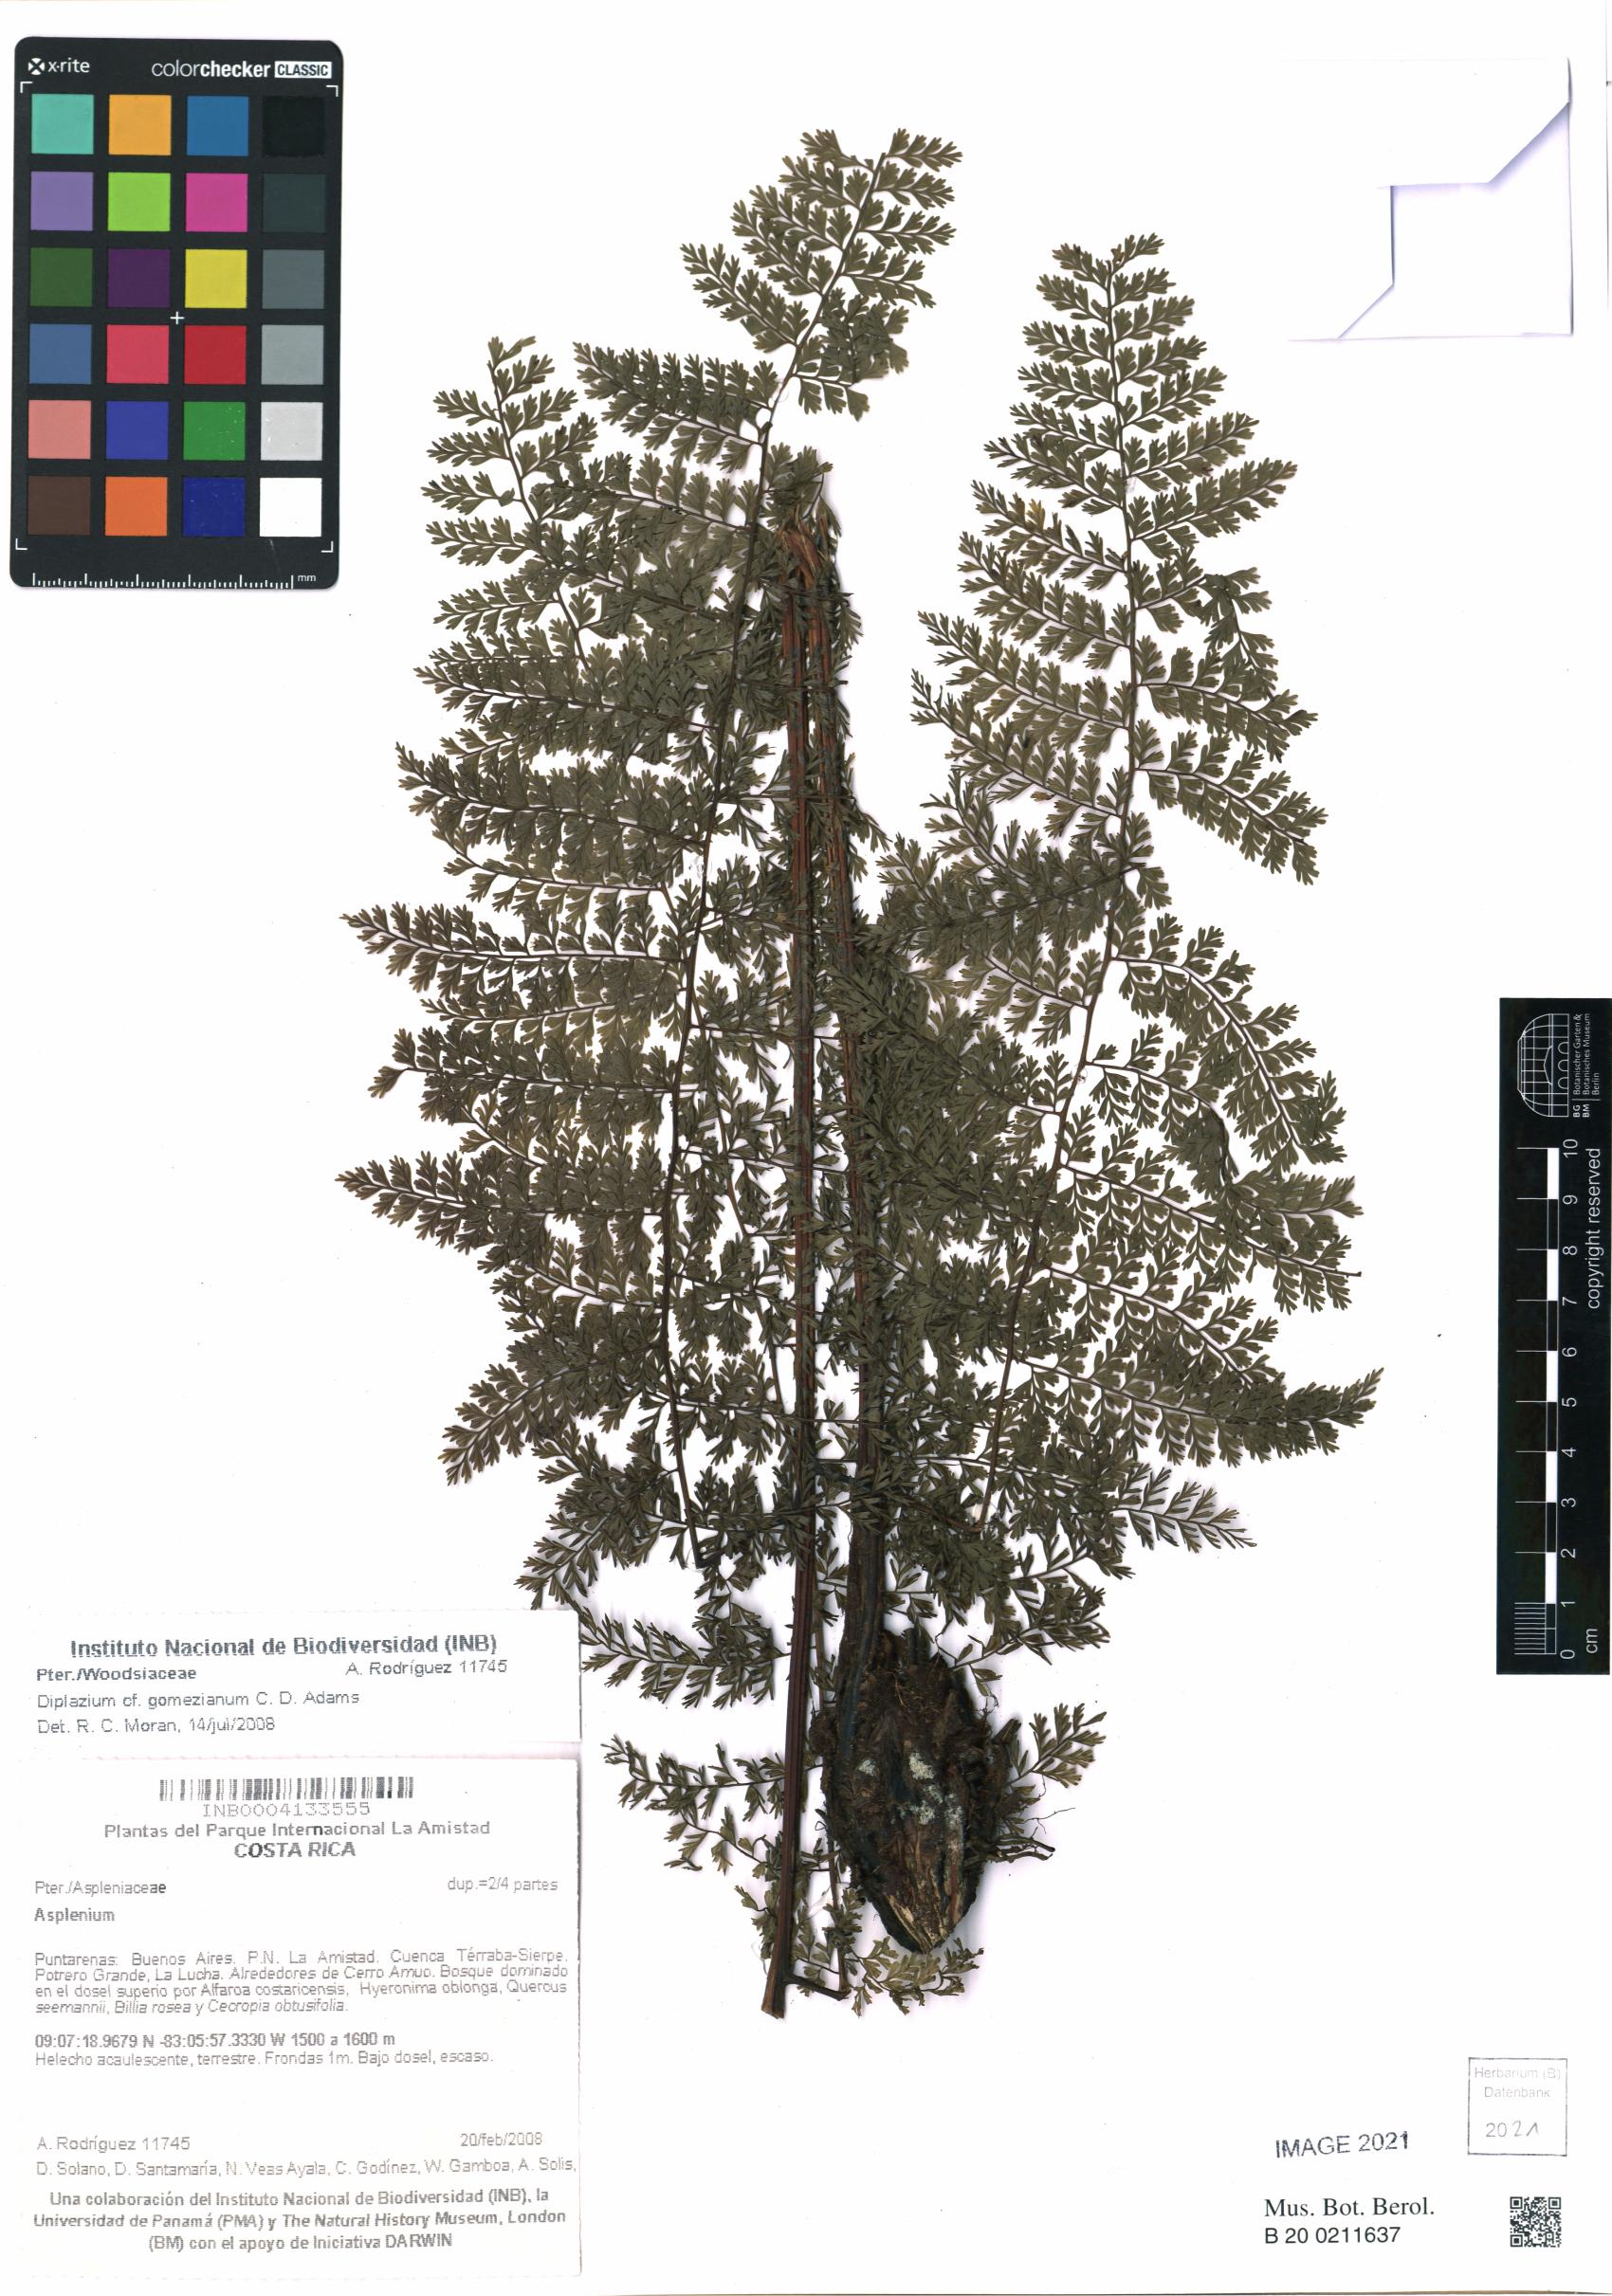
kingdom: Plantae
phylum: Tracheophyta
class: Magnoliopsida
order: Asterales
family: Asteraceae
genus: Mikania
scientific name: Mikania
